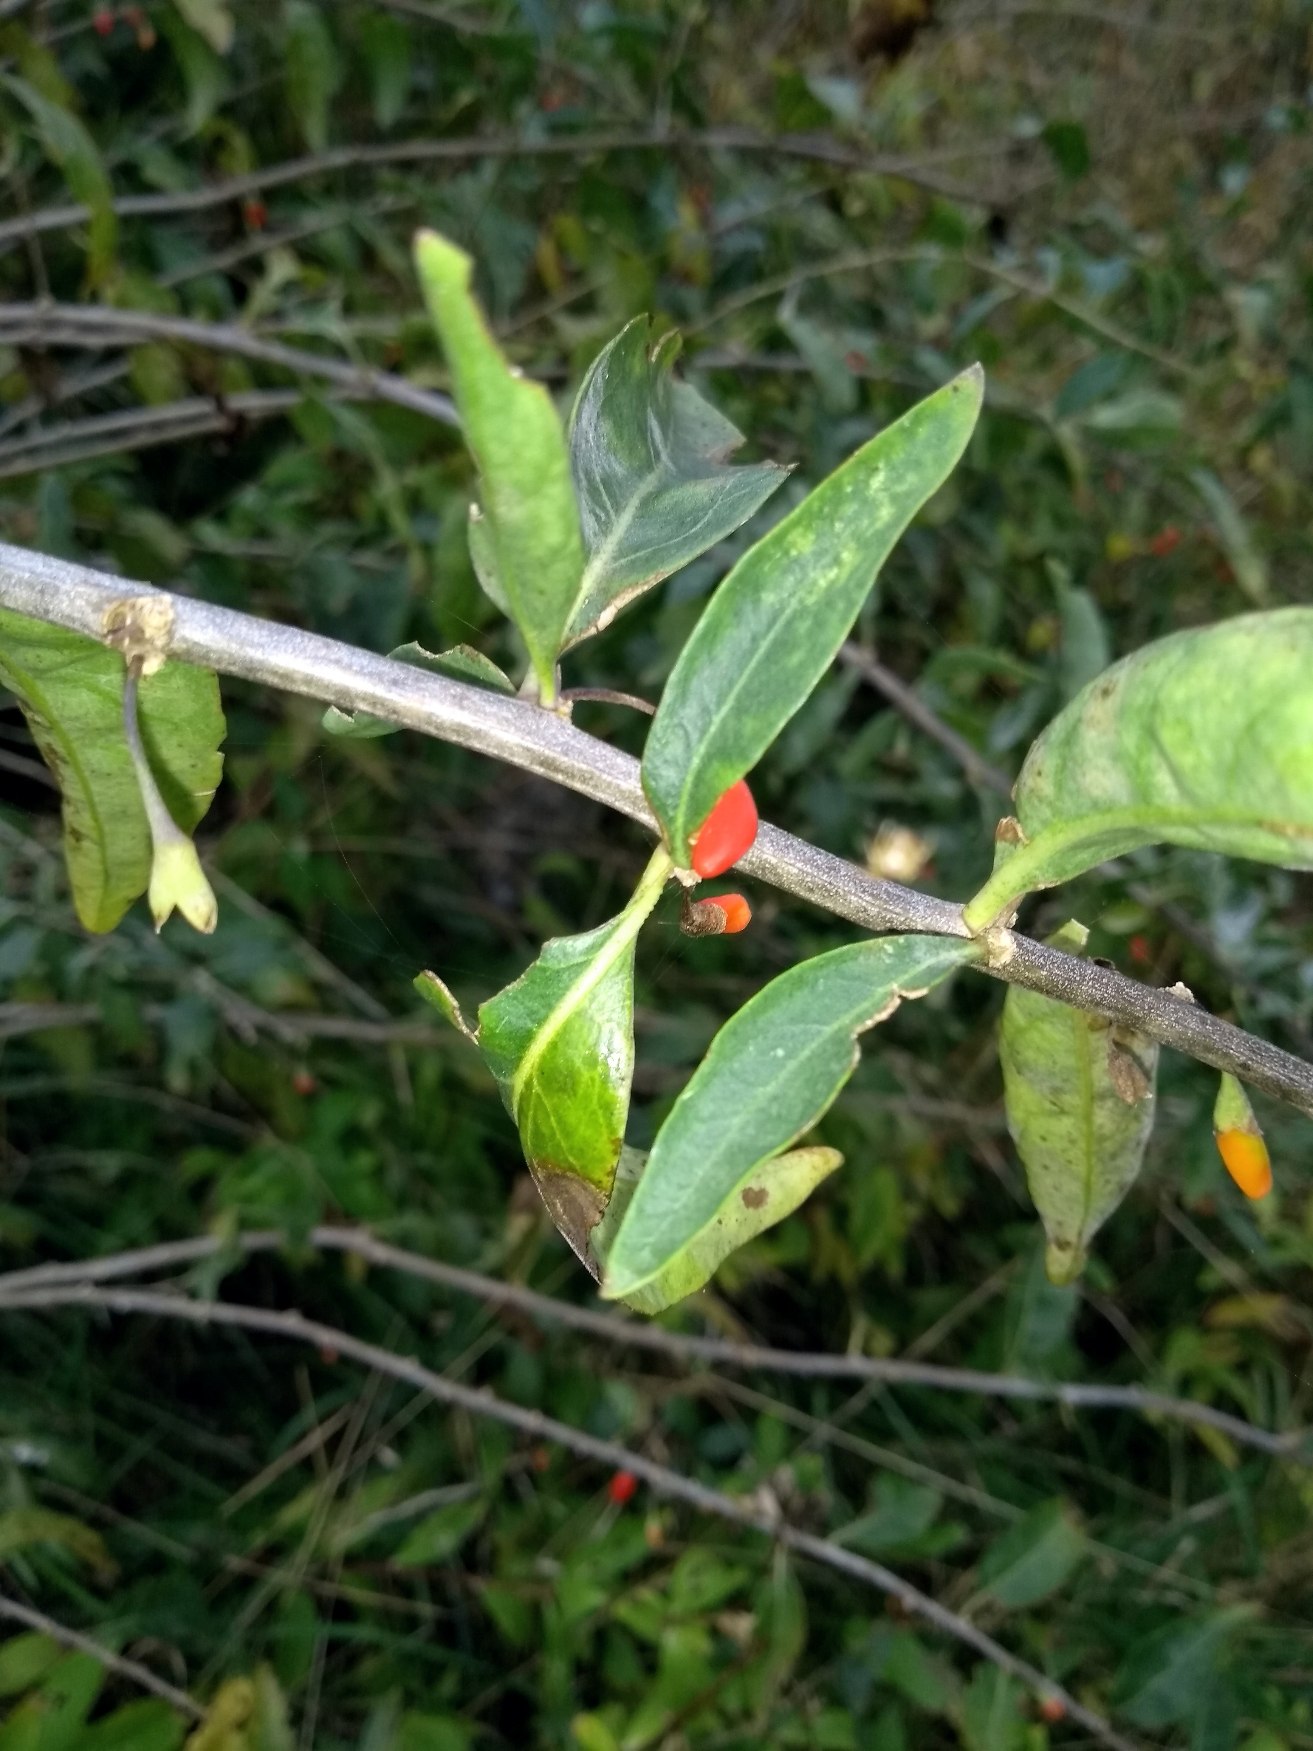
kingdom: Plantae
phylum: Tracheophyta
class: Magnoliopsida
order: Solanales
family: Solanaceae
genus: Lycium
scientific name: Lycium barbarum
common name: Bukketorn
